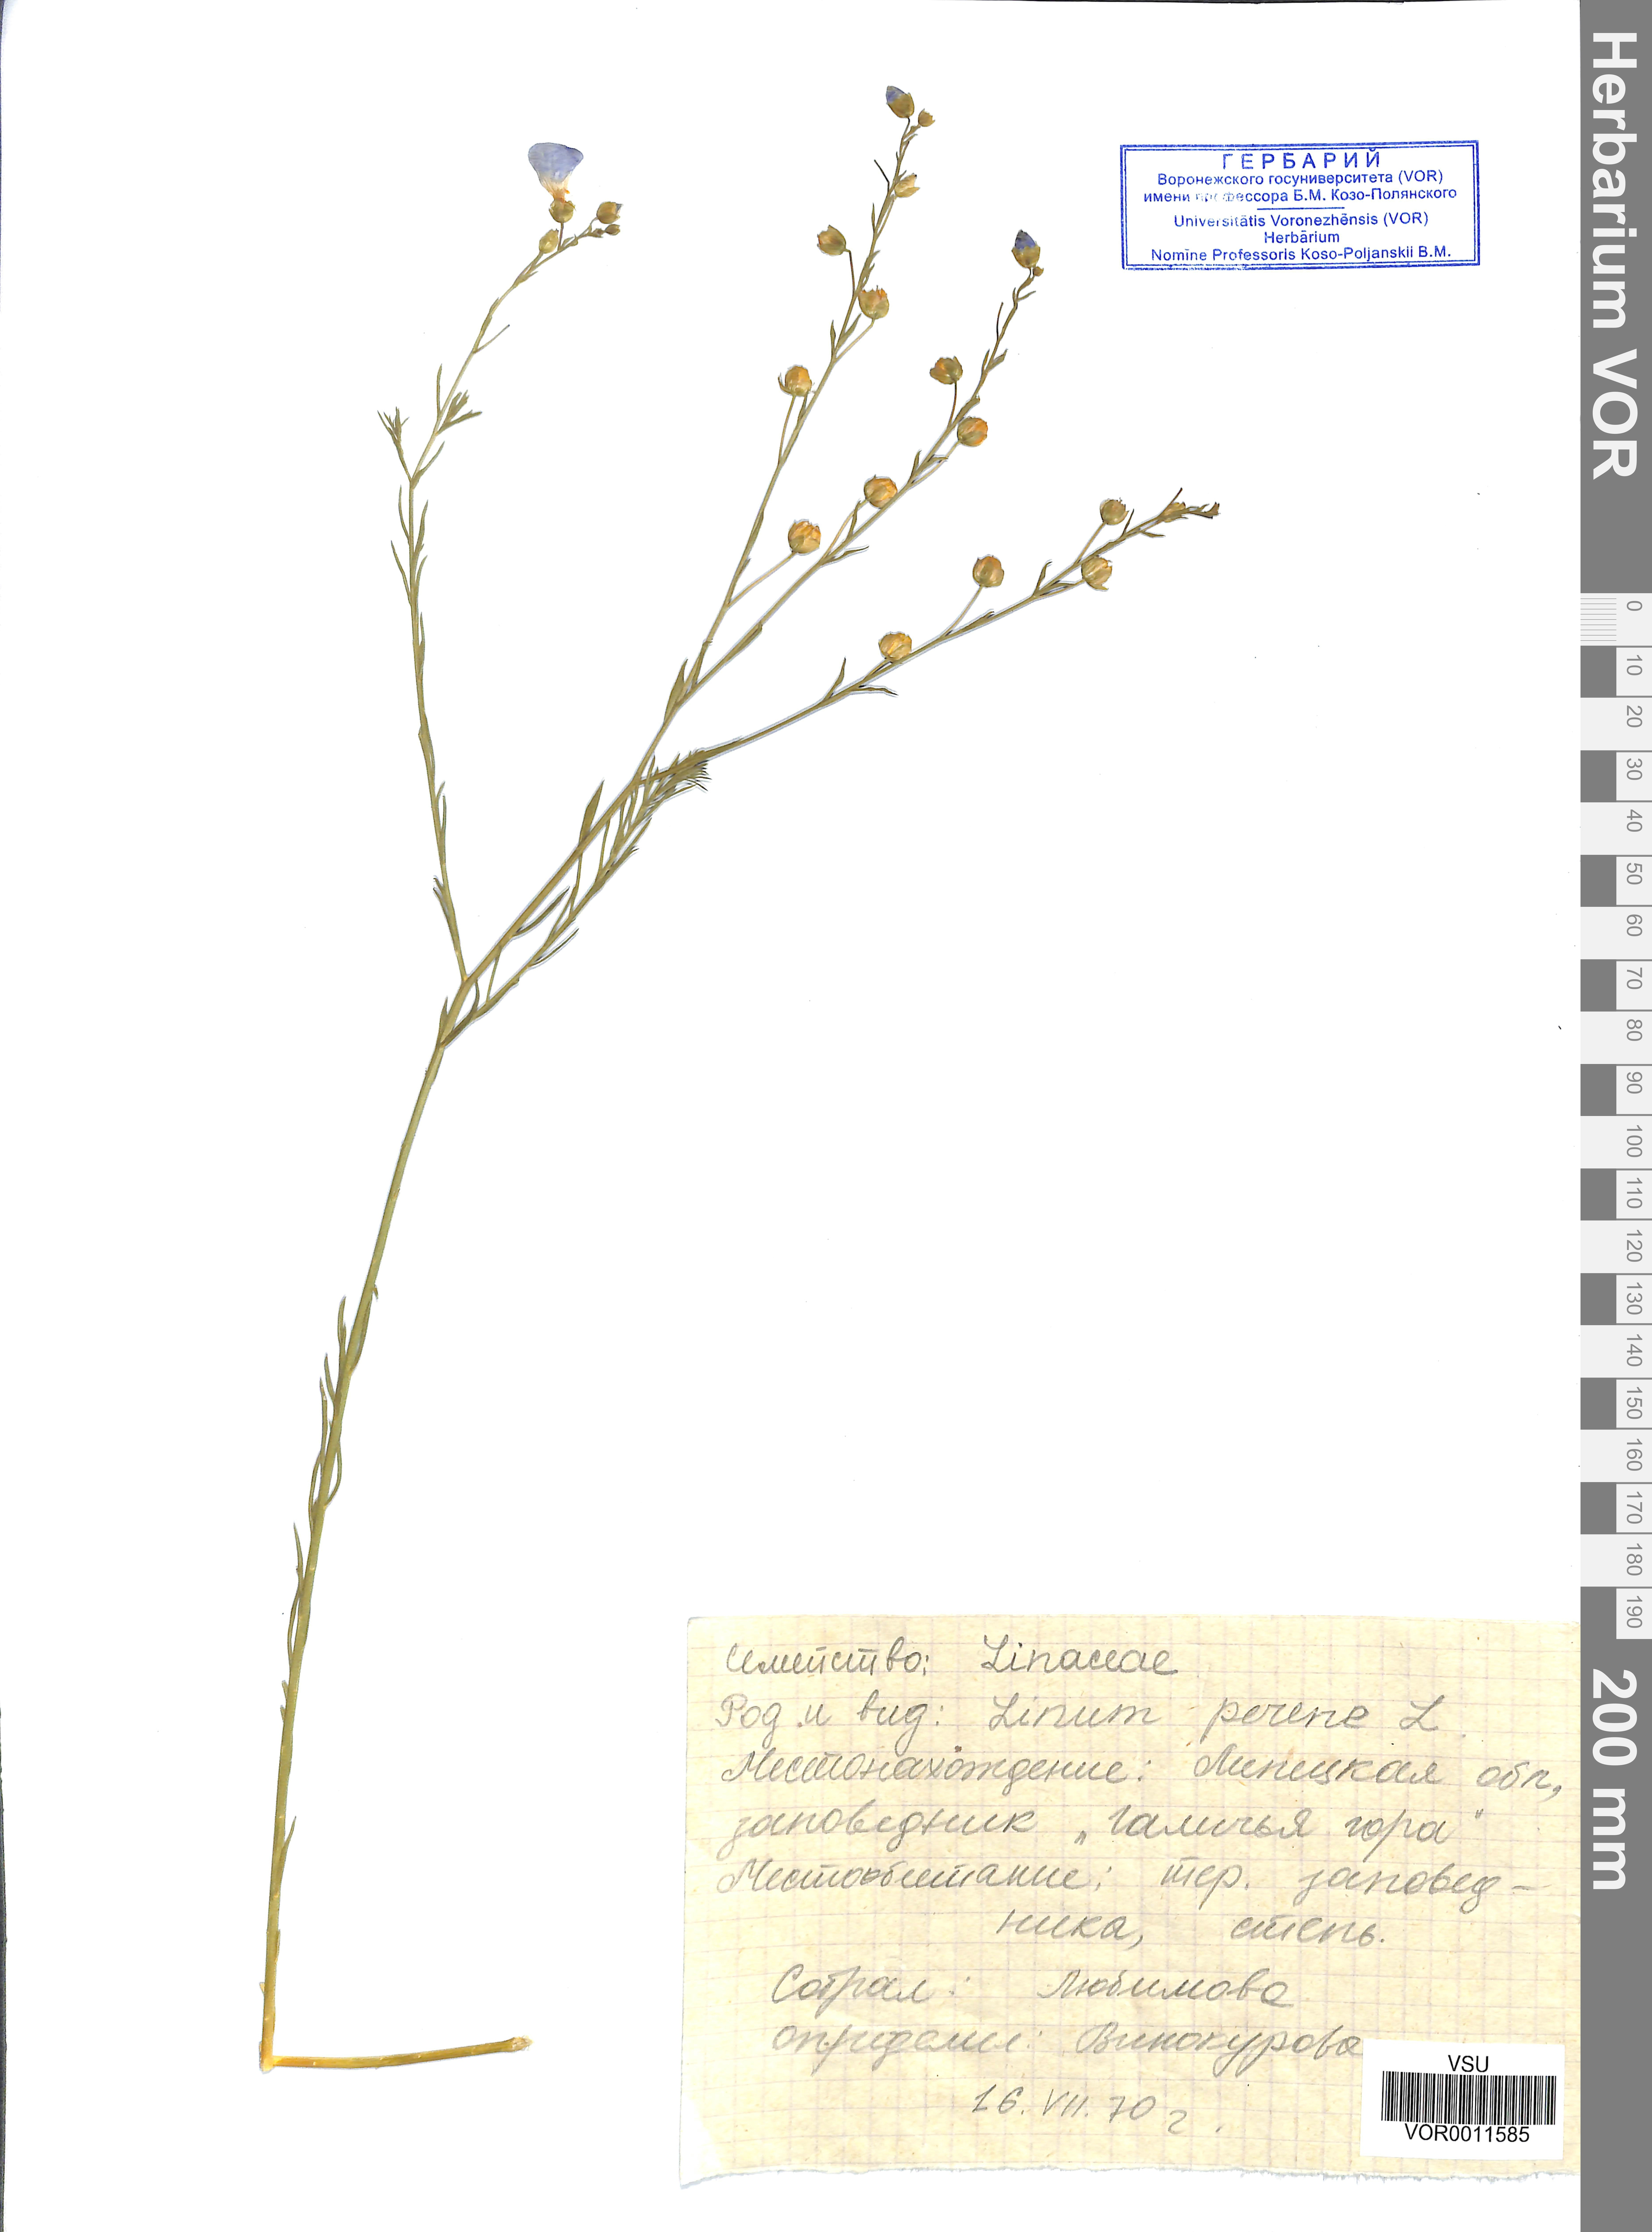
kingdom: Plantae
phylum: Tracheophyta
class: Magnoliopsida
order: Malpighiales
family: Linaceae
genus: Linum
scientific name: Linum perenne
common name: Blue flax
